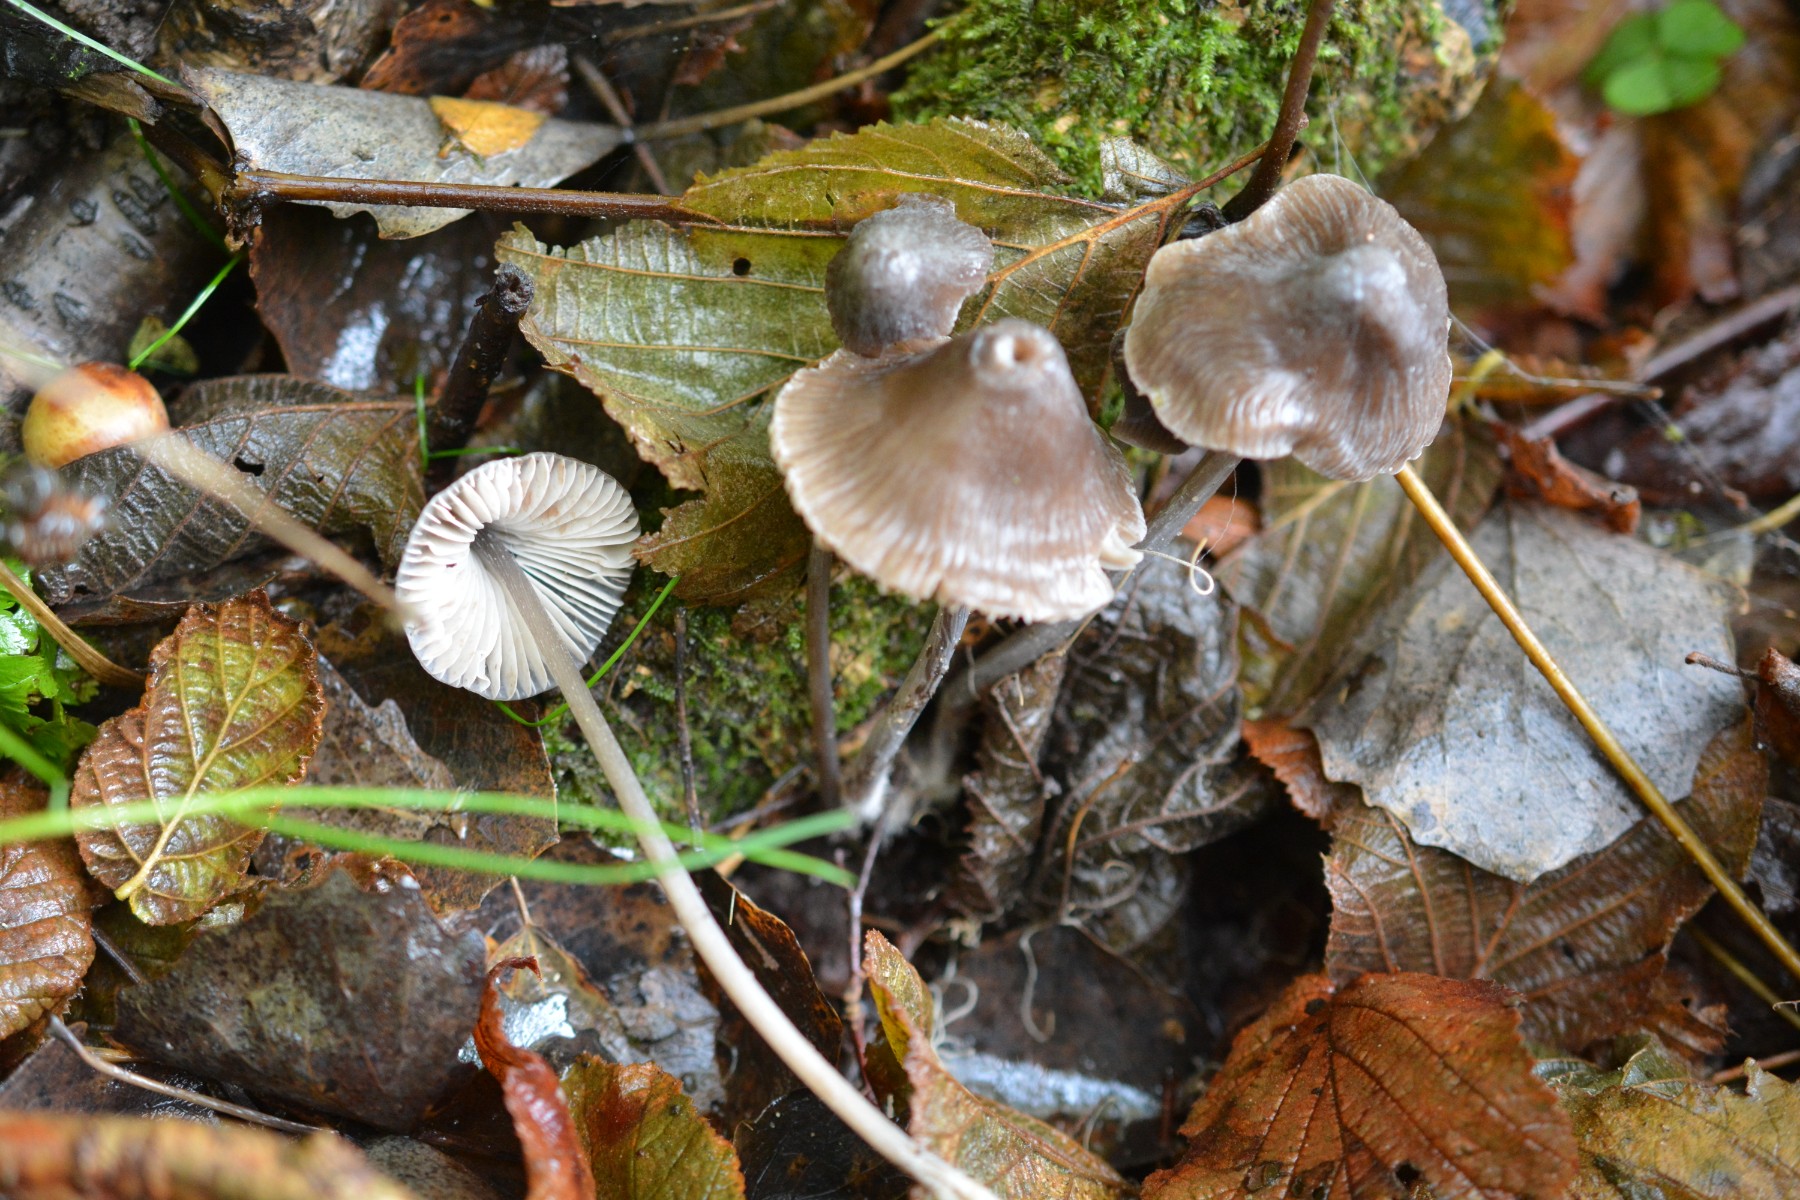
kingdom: Fungi
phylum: Basidiomycota
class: Agaricomycetes
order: Agaricales
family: Mycenaceae
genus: Mycena
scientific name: Mycena polygramma
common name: mangestribet huesvamp
